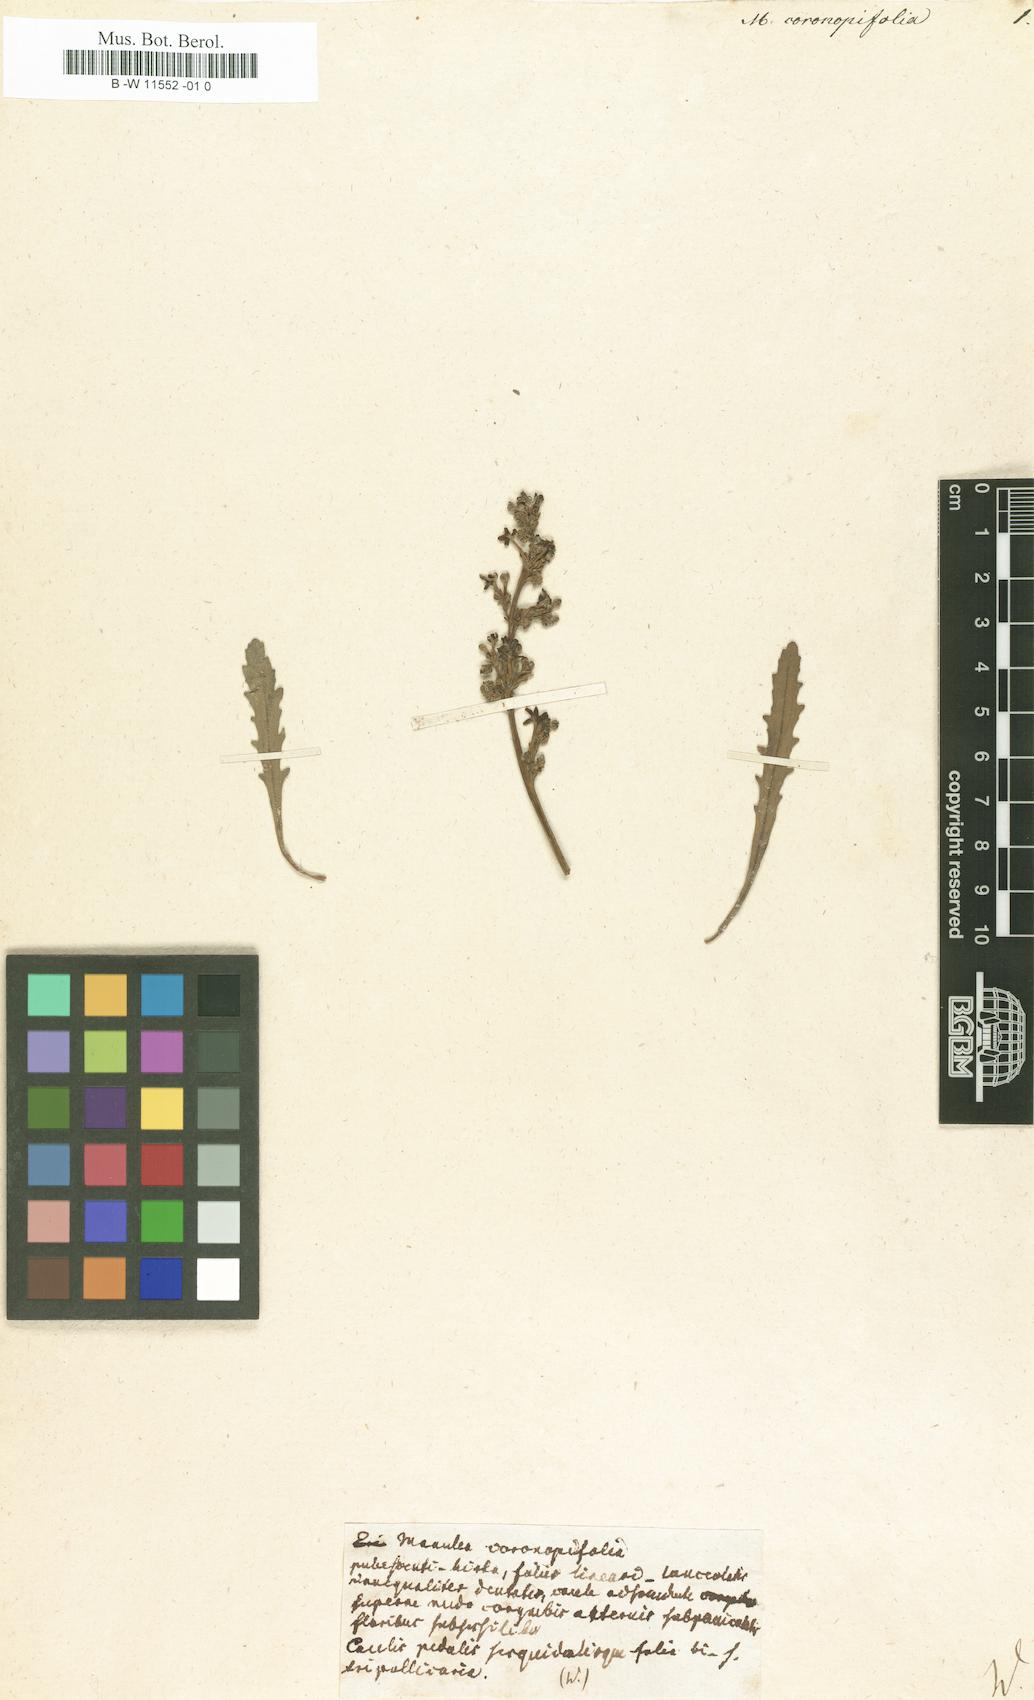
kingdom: Plantae
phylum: Tracheophyta
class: Magnoliopsida
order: Lamiales
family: Scrophulariaceae
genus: Manulea
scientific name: Manulea
